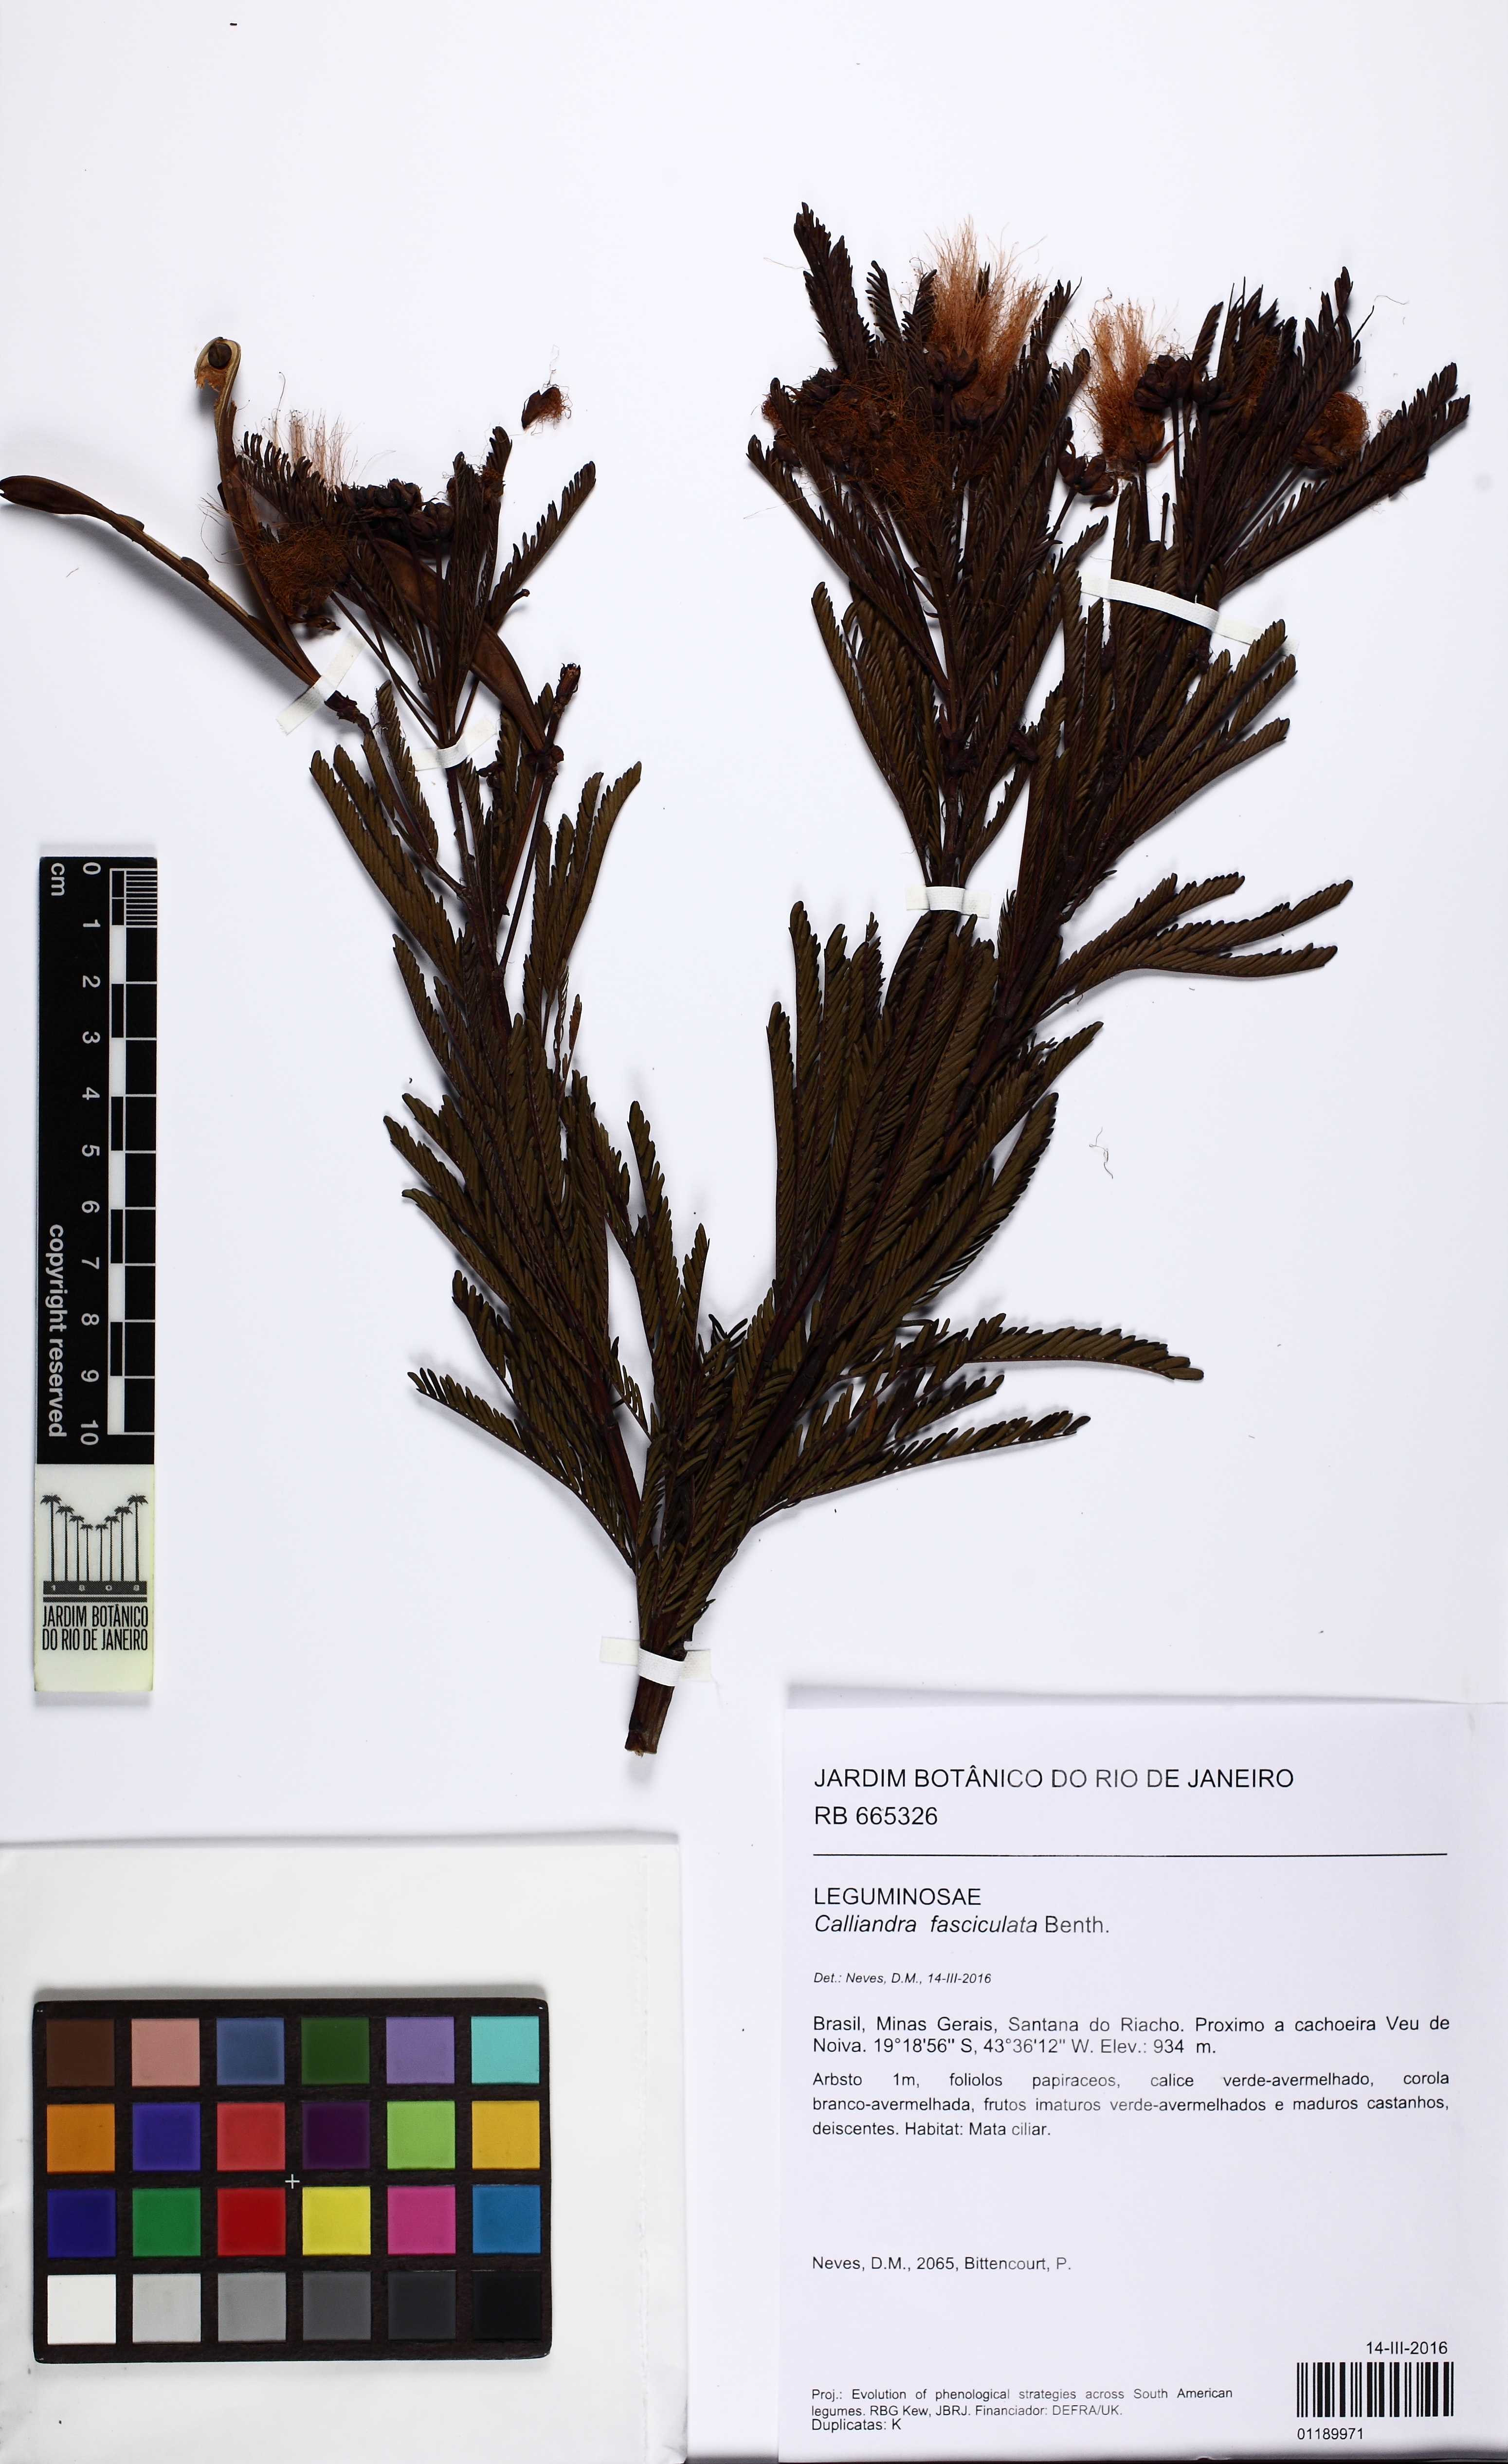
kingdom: Plantae
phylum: Tracheophyta
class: Magnoliopsida
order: Fabales
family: Fabaceae
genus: Calliandra
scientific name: Calliandra fasciculata
